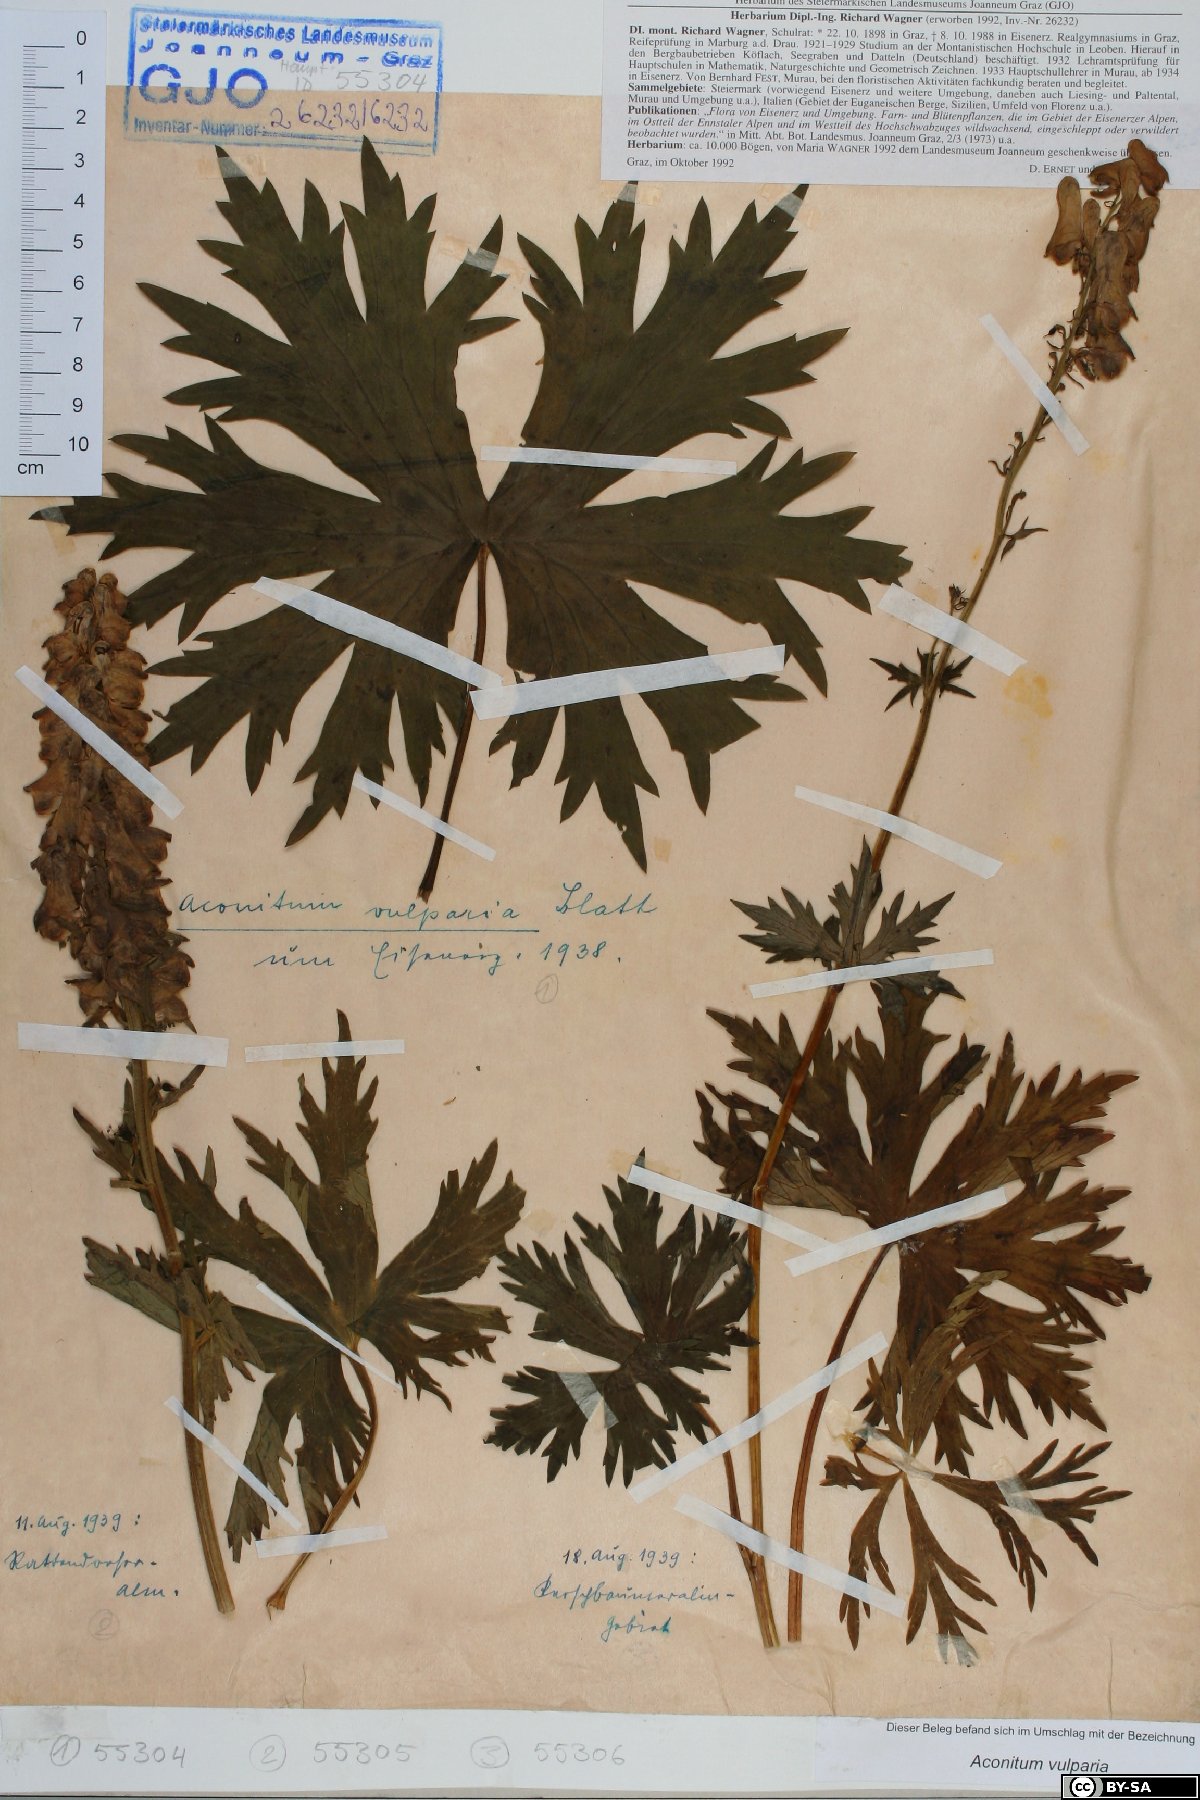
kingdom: Plantae
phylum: Tracheophyta
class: Magnoliopsida
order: Ranunculales
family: Ranunculaceae
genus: Aconitum
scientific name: Aconitum lycoctonum
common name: Wolf's-bane
